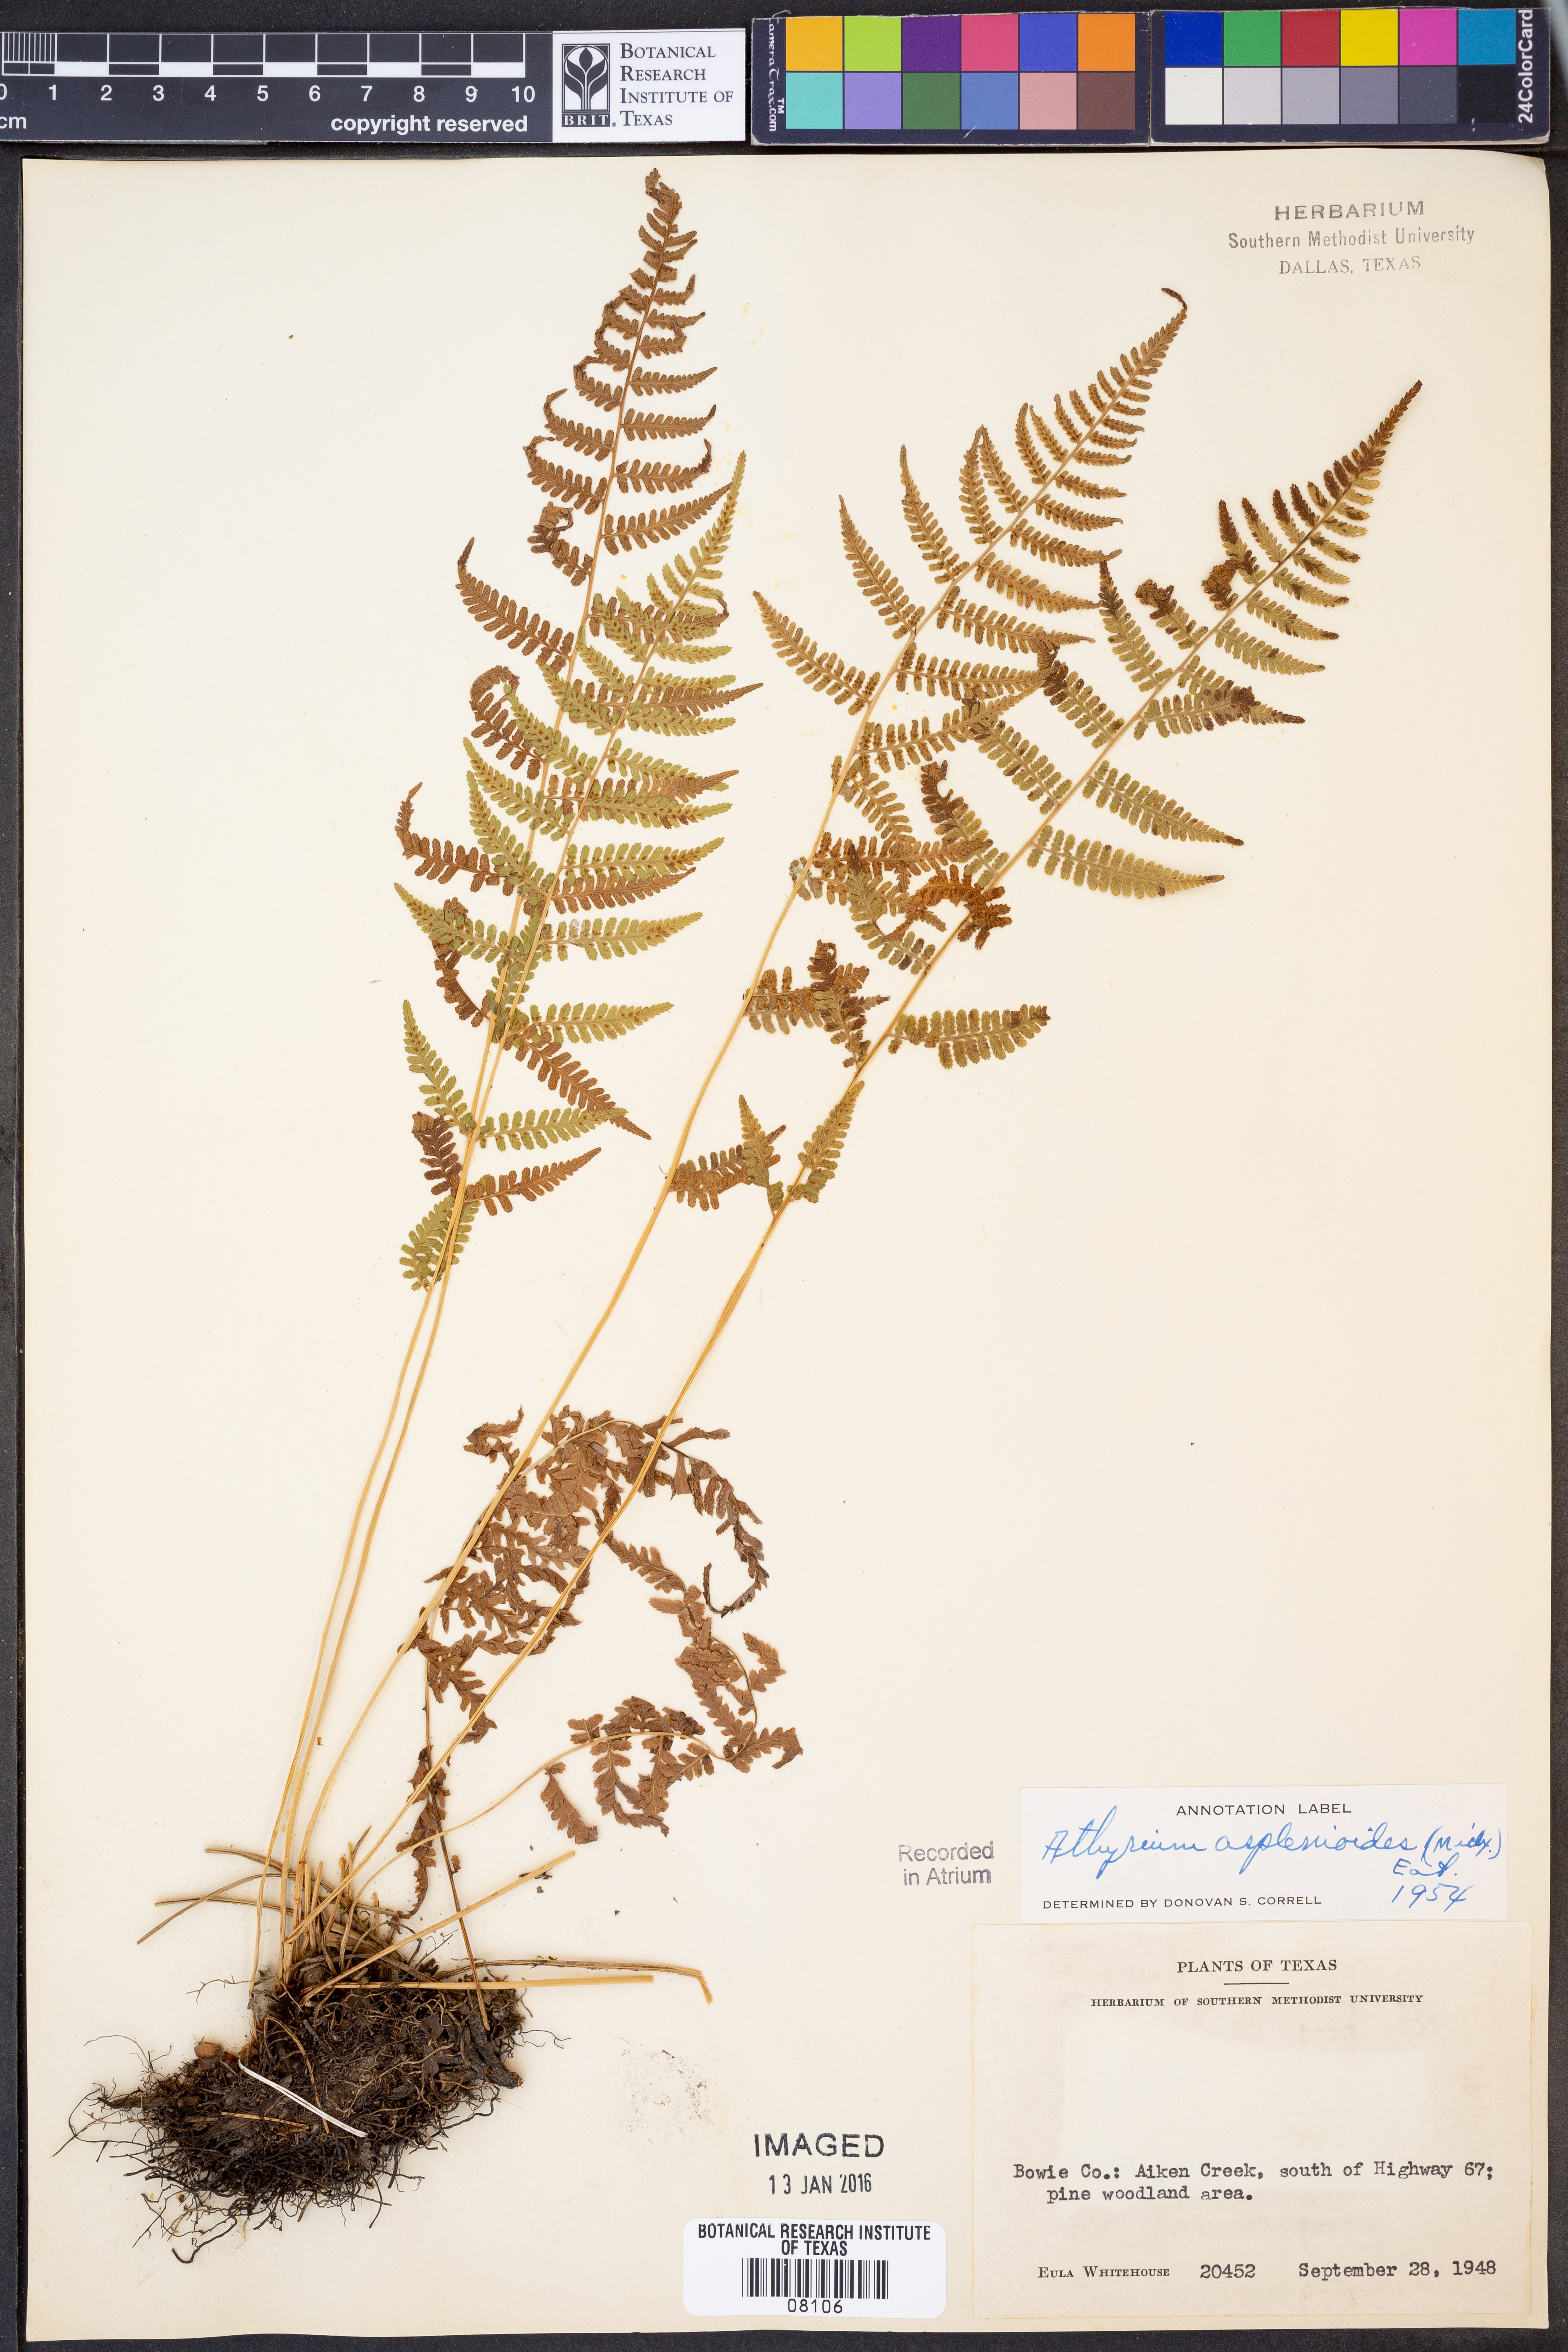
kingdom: Plantae
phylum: Tracheophyta
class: Polypodiopsida
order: Polypodiales
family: Athyriaceae
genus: Athyrium
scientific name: Athyrium asplenioides
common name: Southern lady fern
